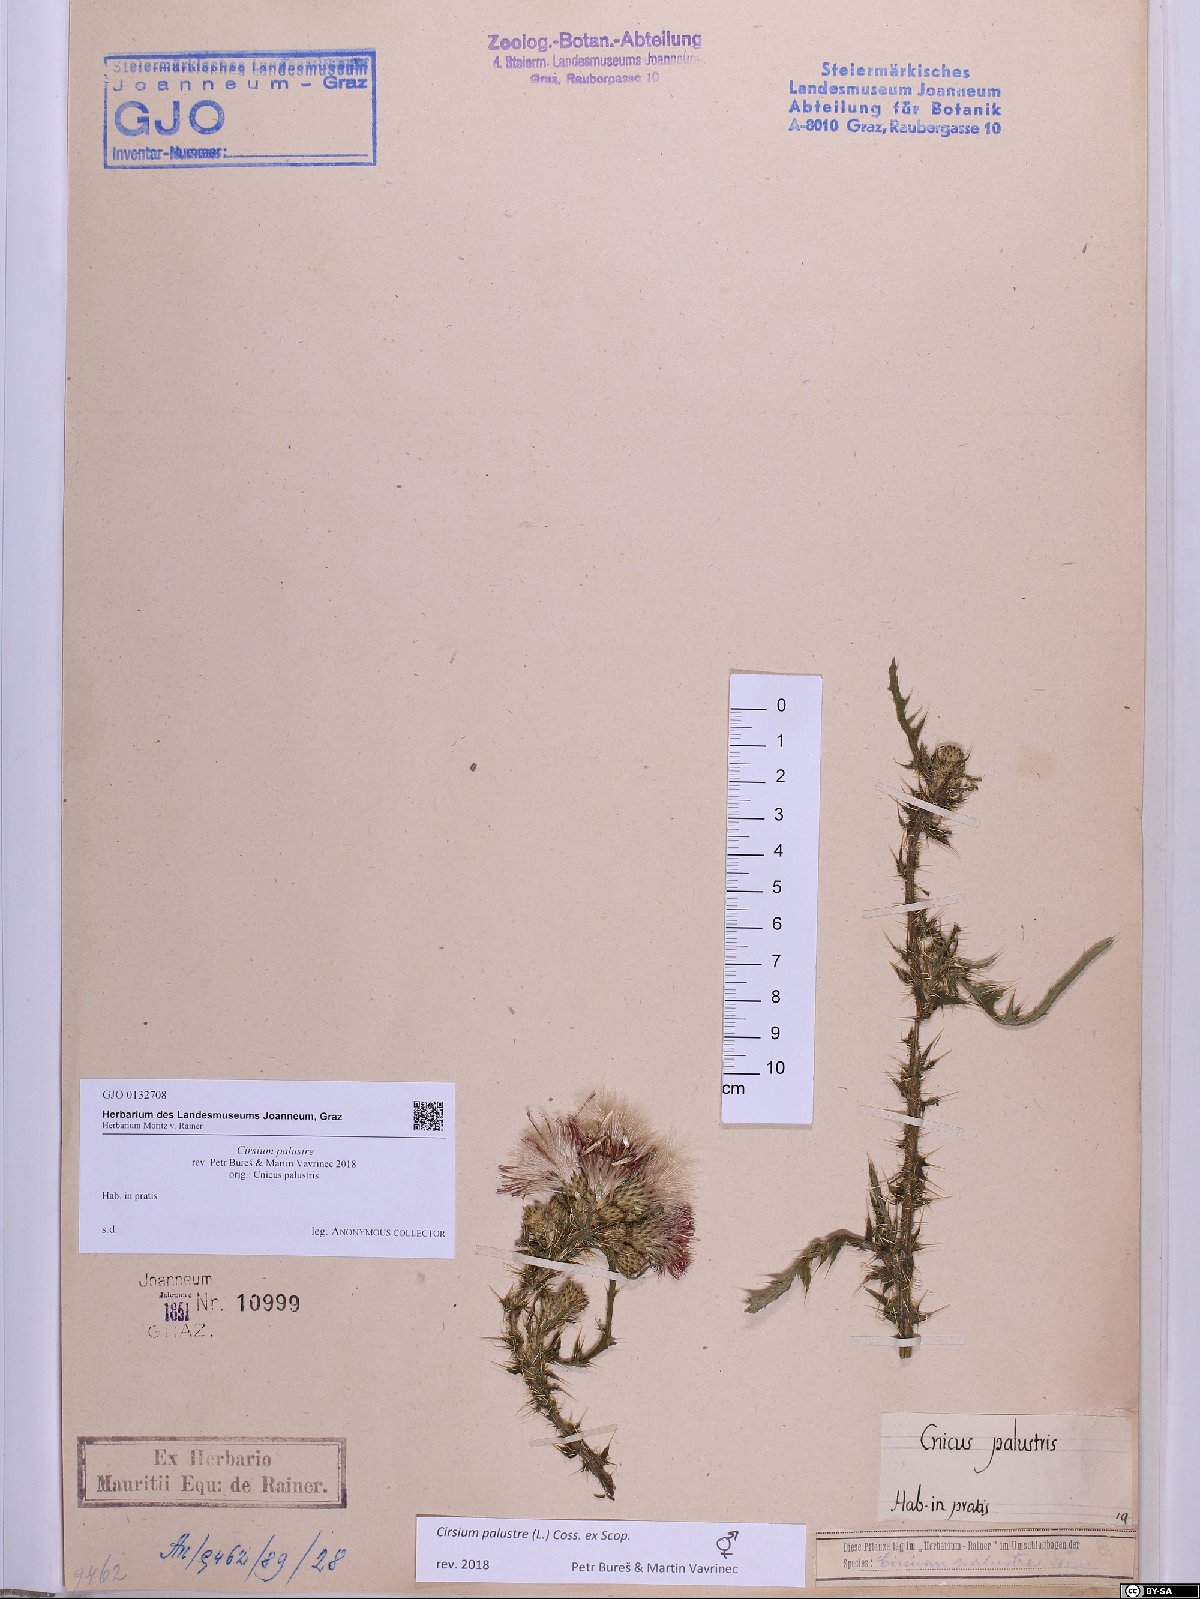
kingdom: Plantae
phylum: Tracheophyta
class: Magnoliopsida
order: Asterales
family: Asteraceae
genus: Cirsium
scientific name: Cirsium palustre
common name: Marsh thistle
